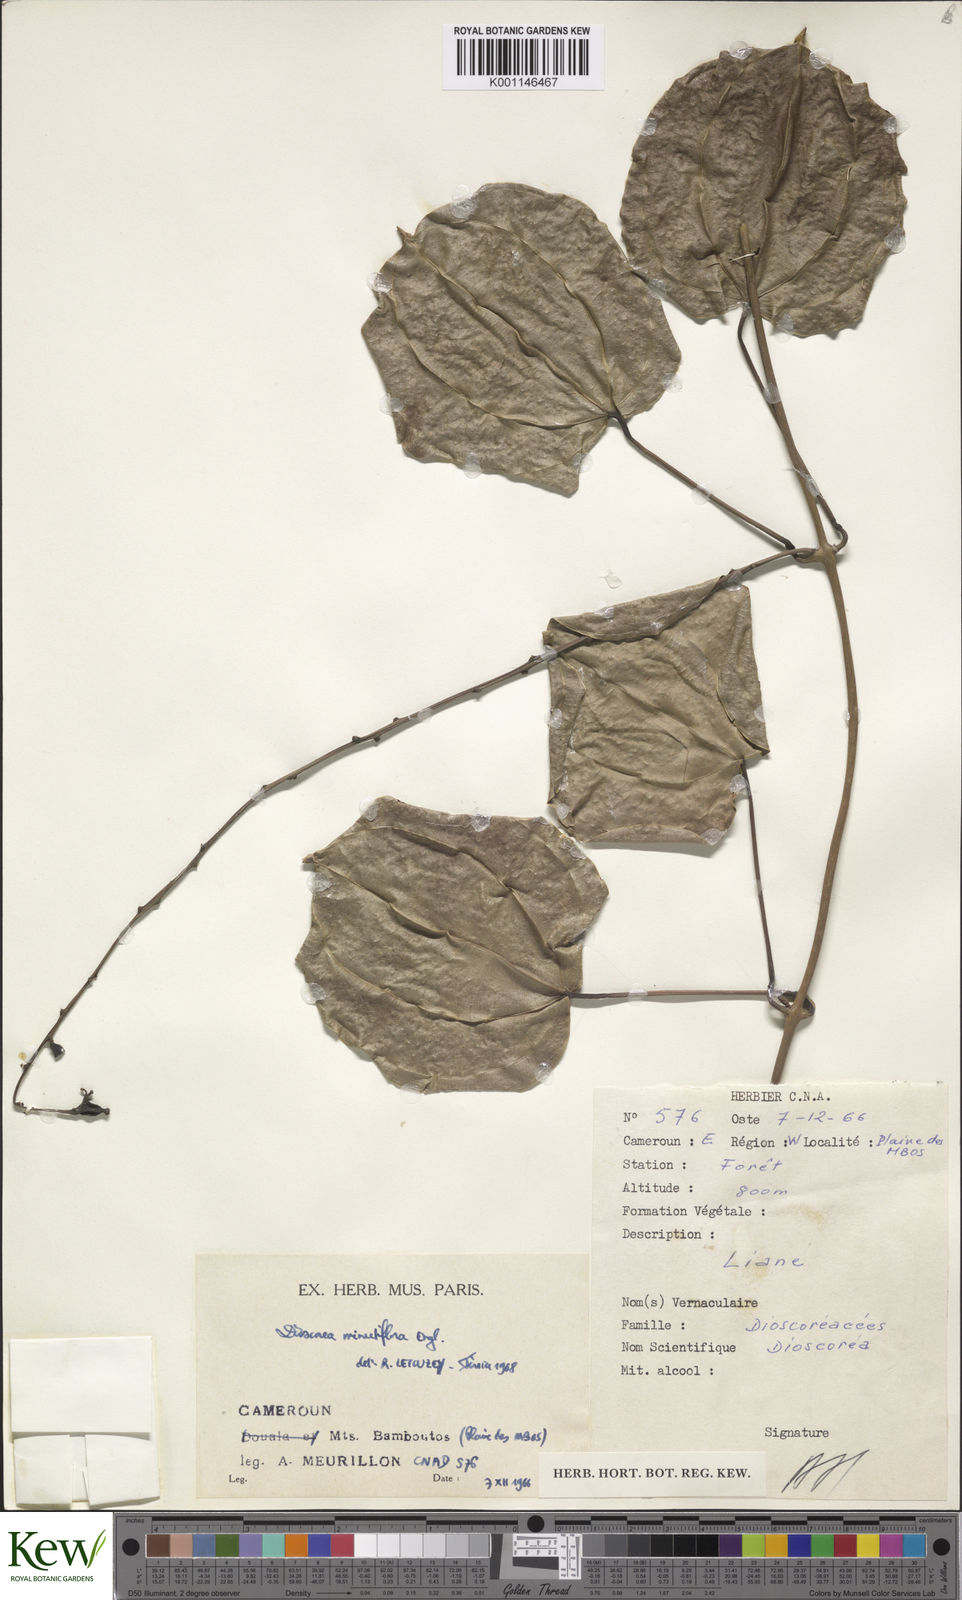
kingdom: Plantae
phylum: Tracheophyta
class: Liliopsida
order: Dioscoreales
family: Dioscoreaceae
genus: Dioscorea
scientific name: Dioscorea minutiflora
